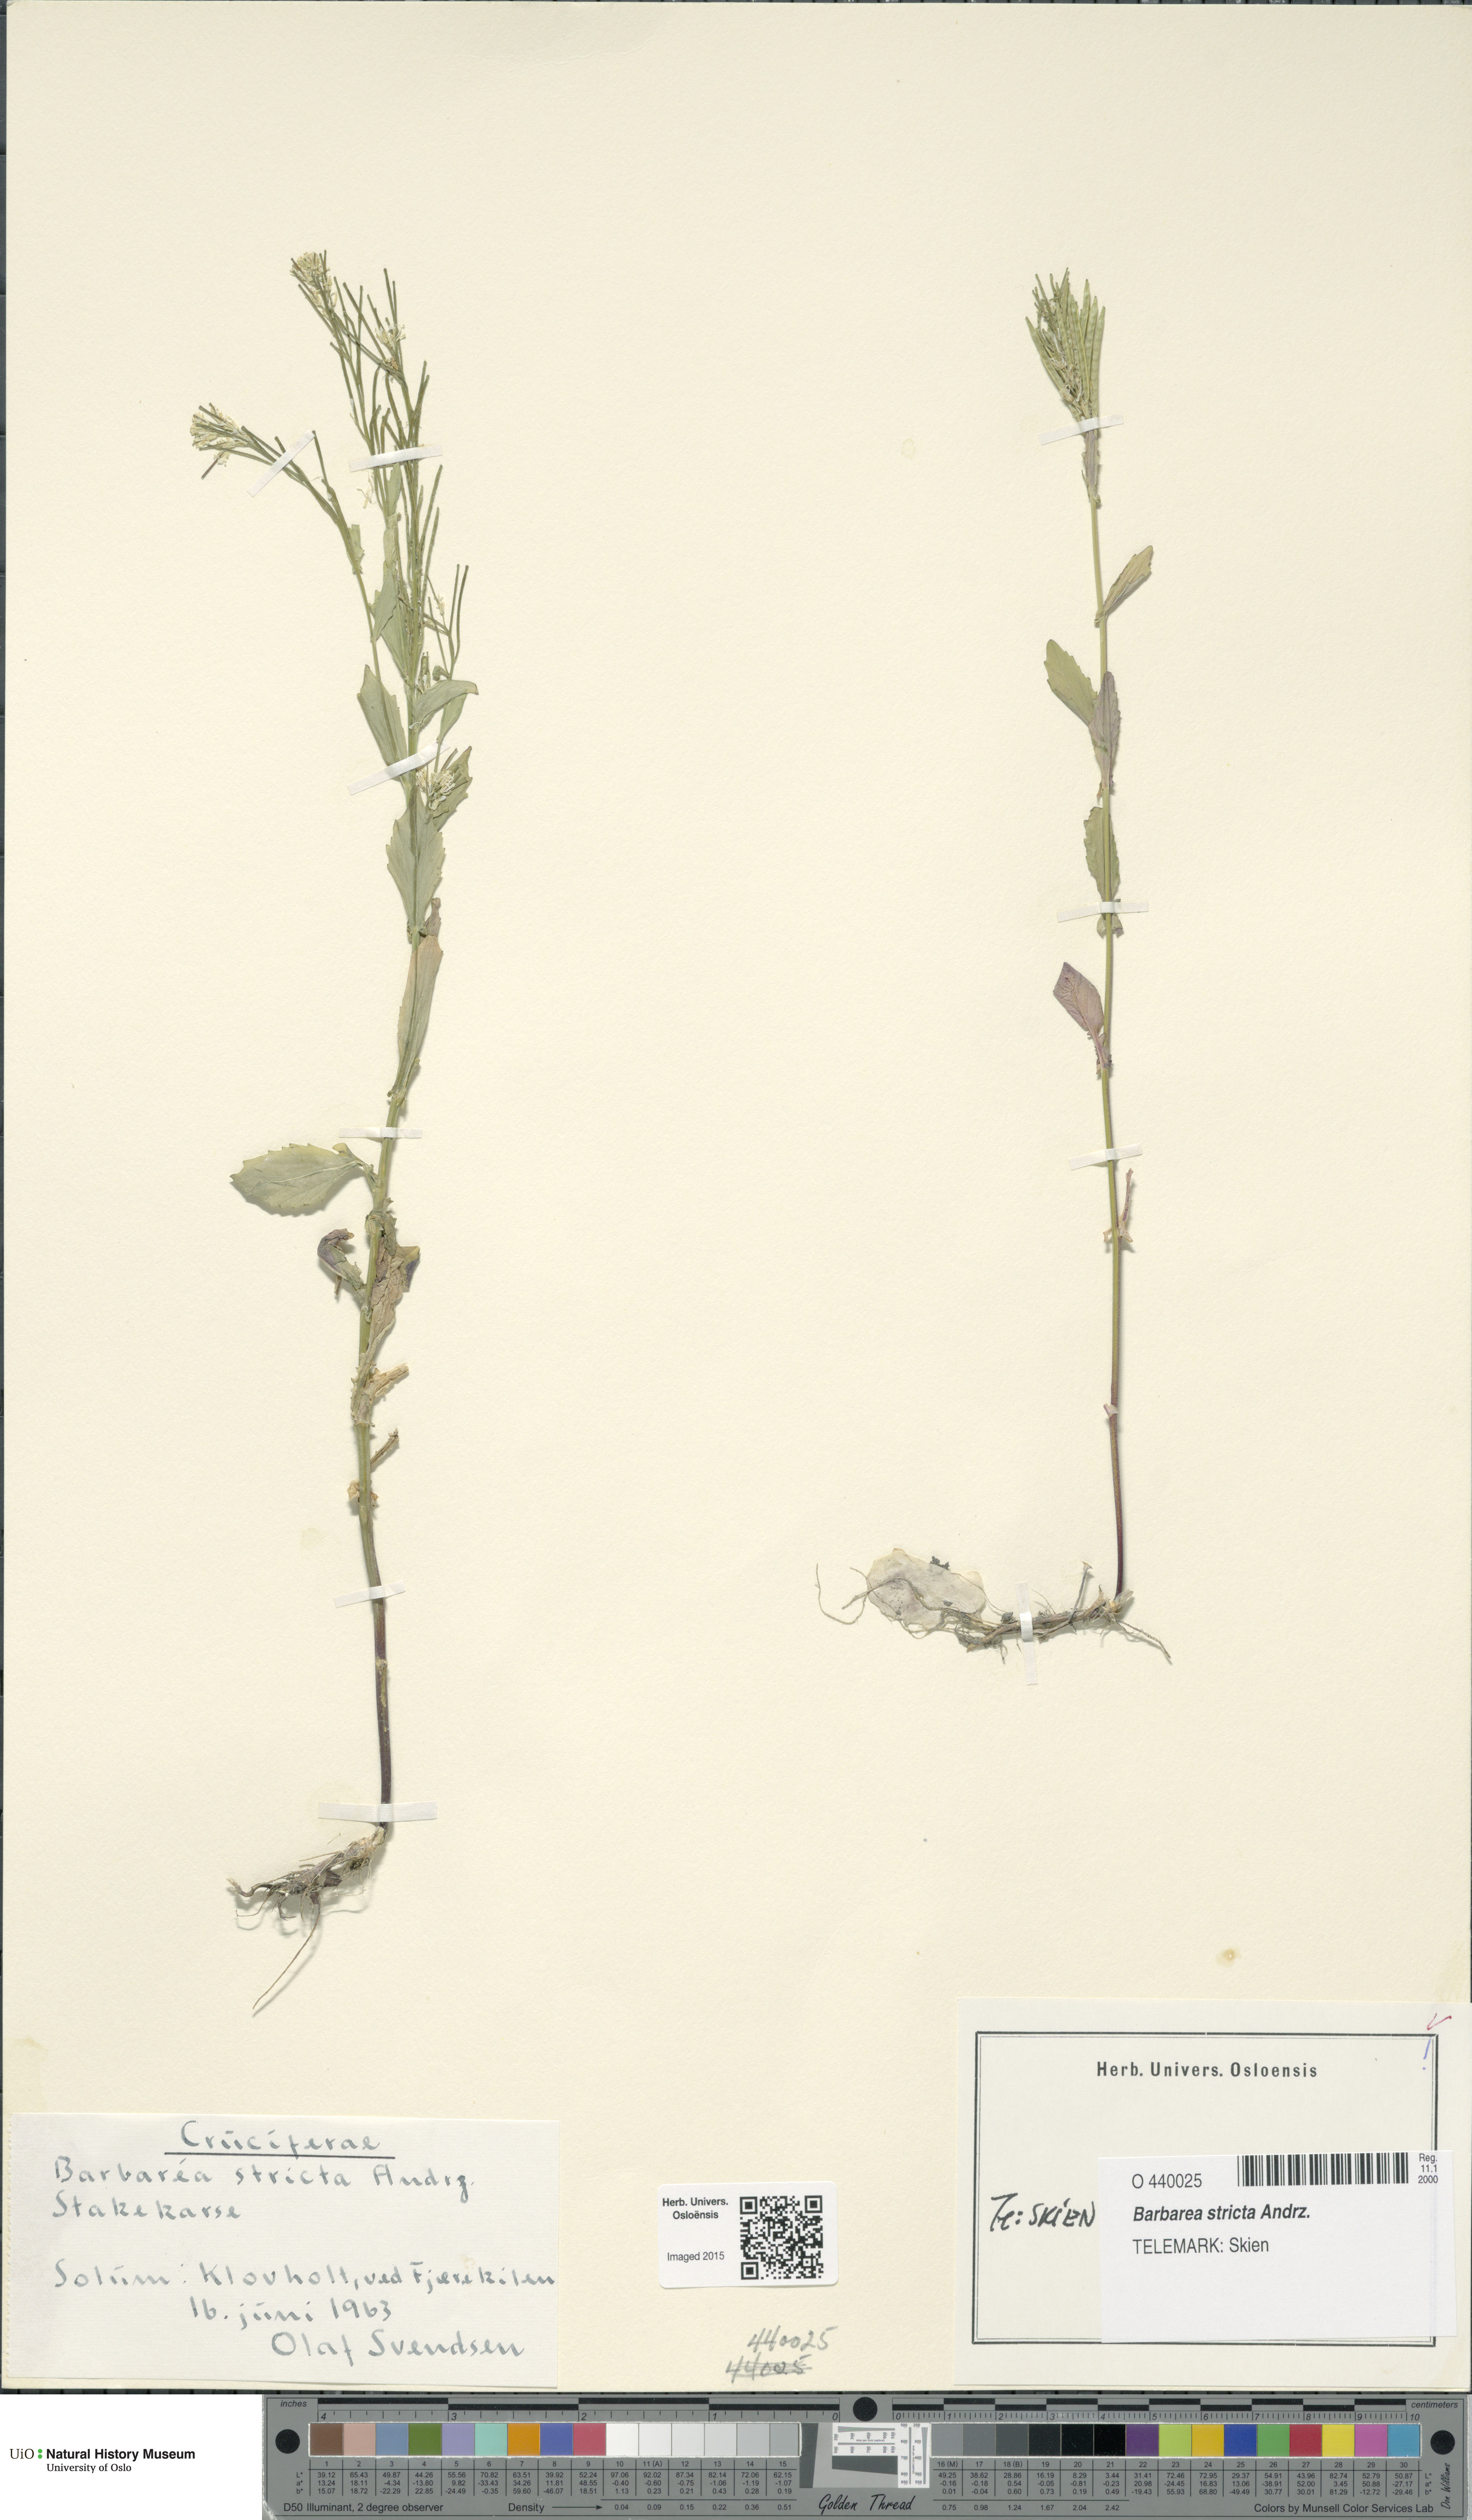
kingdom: Plantae
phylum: Tracheophyta
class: Magnoliopsida
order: Brassicales
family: Brassicaceae
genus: Barbarea
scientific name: Barbarea stricta
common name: Small-flowered winter-cress
